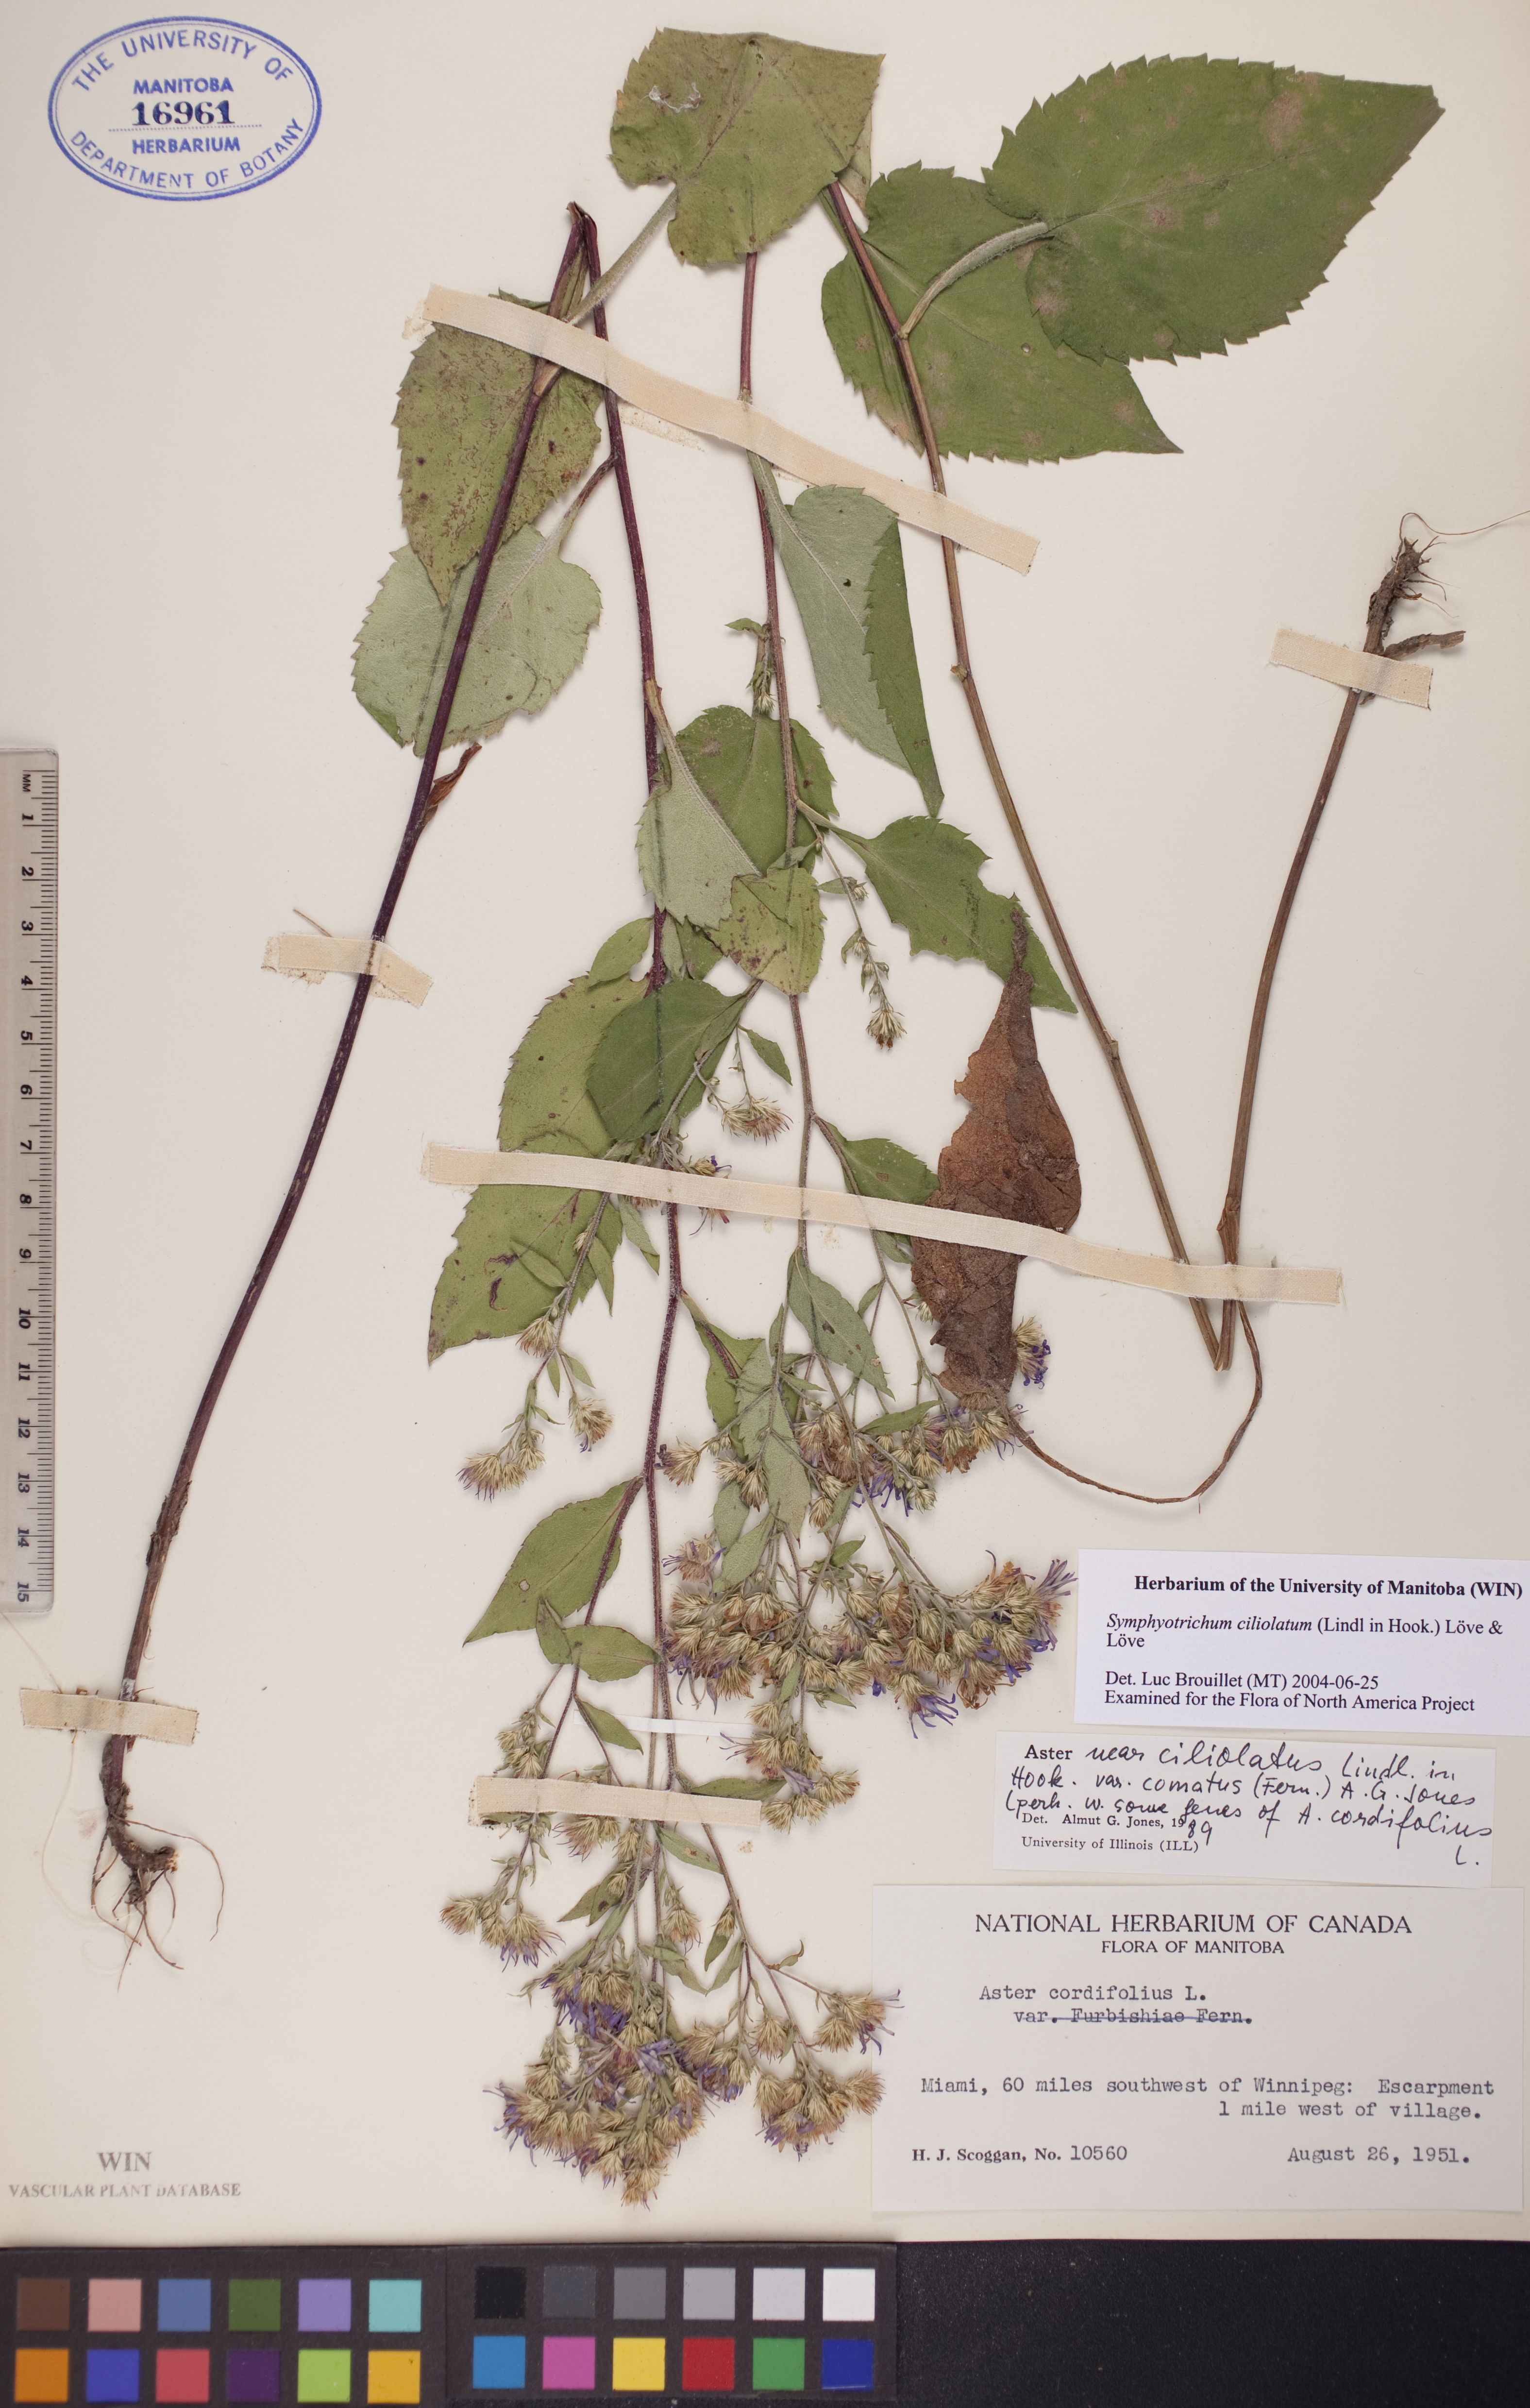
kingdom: Plantae
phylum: Tracheophyta
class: Magnoliopsida
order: Asterales
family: Asteraceae
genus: Symphyotrichum
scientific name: Symphyotrichum ciliolatum
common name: Fringed blue aster
